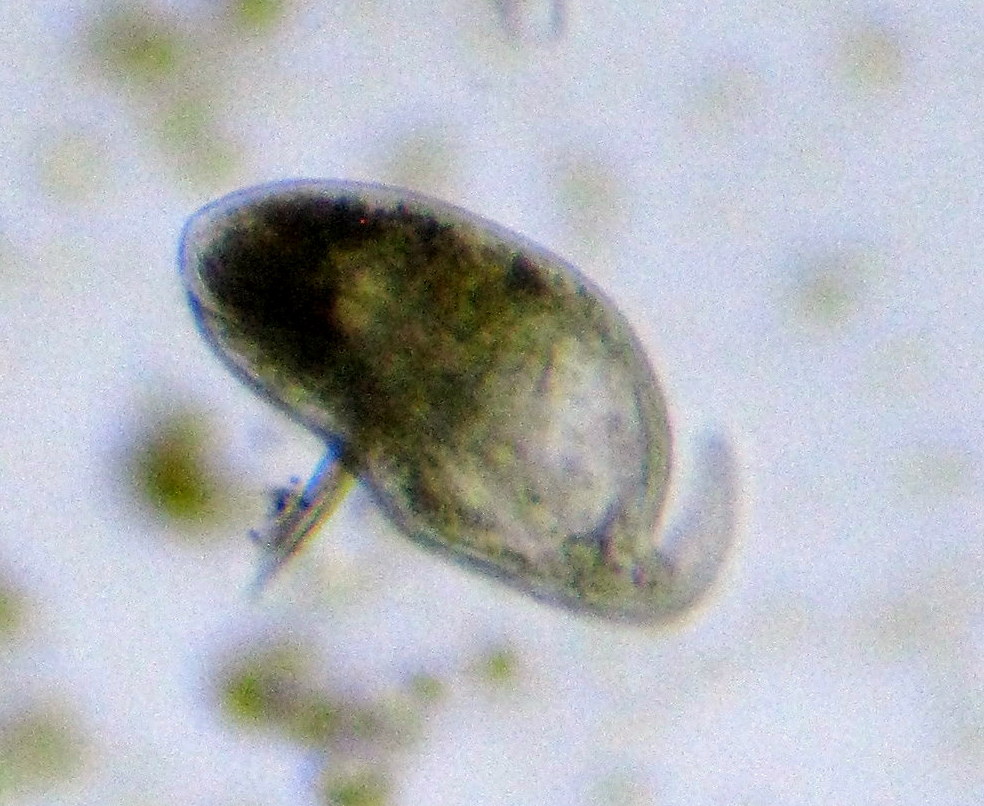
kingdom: Chromista
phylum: Ciliophora
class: Litostomatea
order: Dileptida
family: Dileptidae
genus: Trachelius
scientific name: Trachelius
